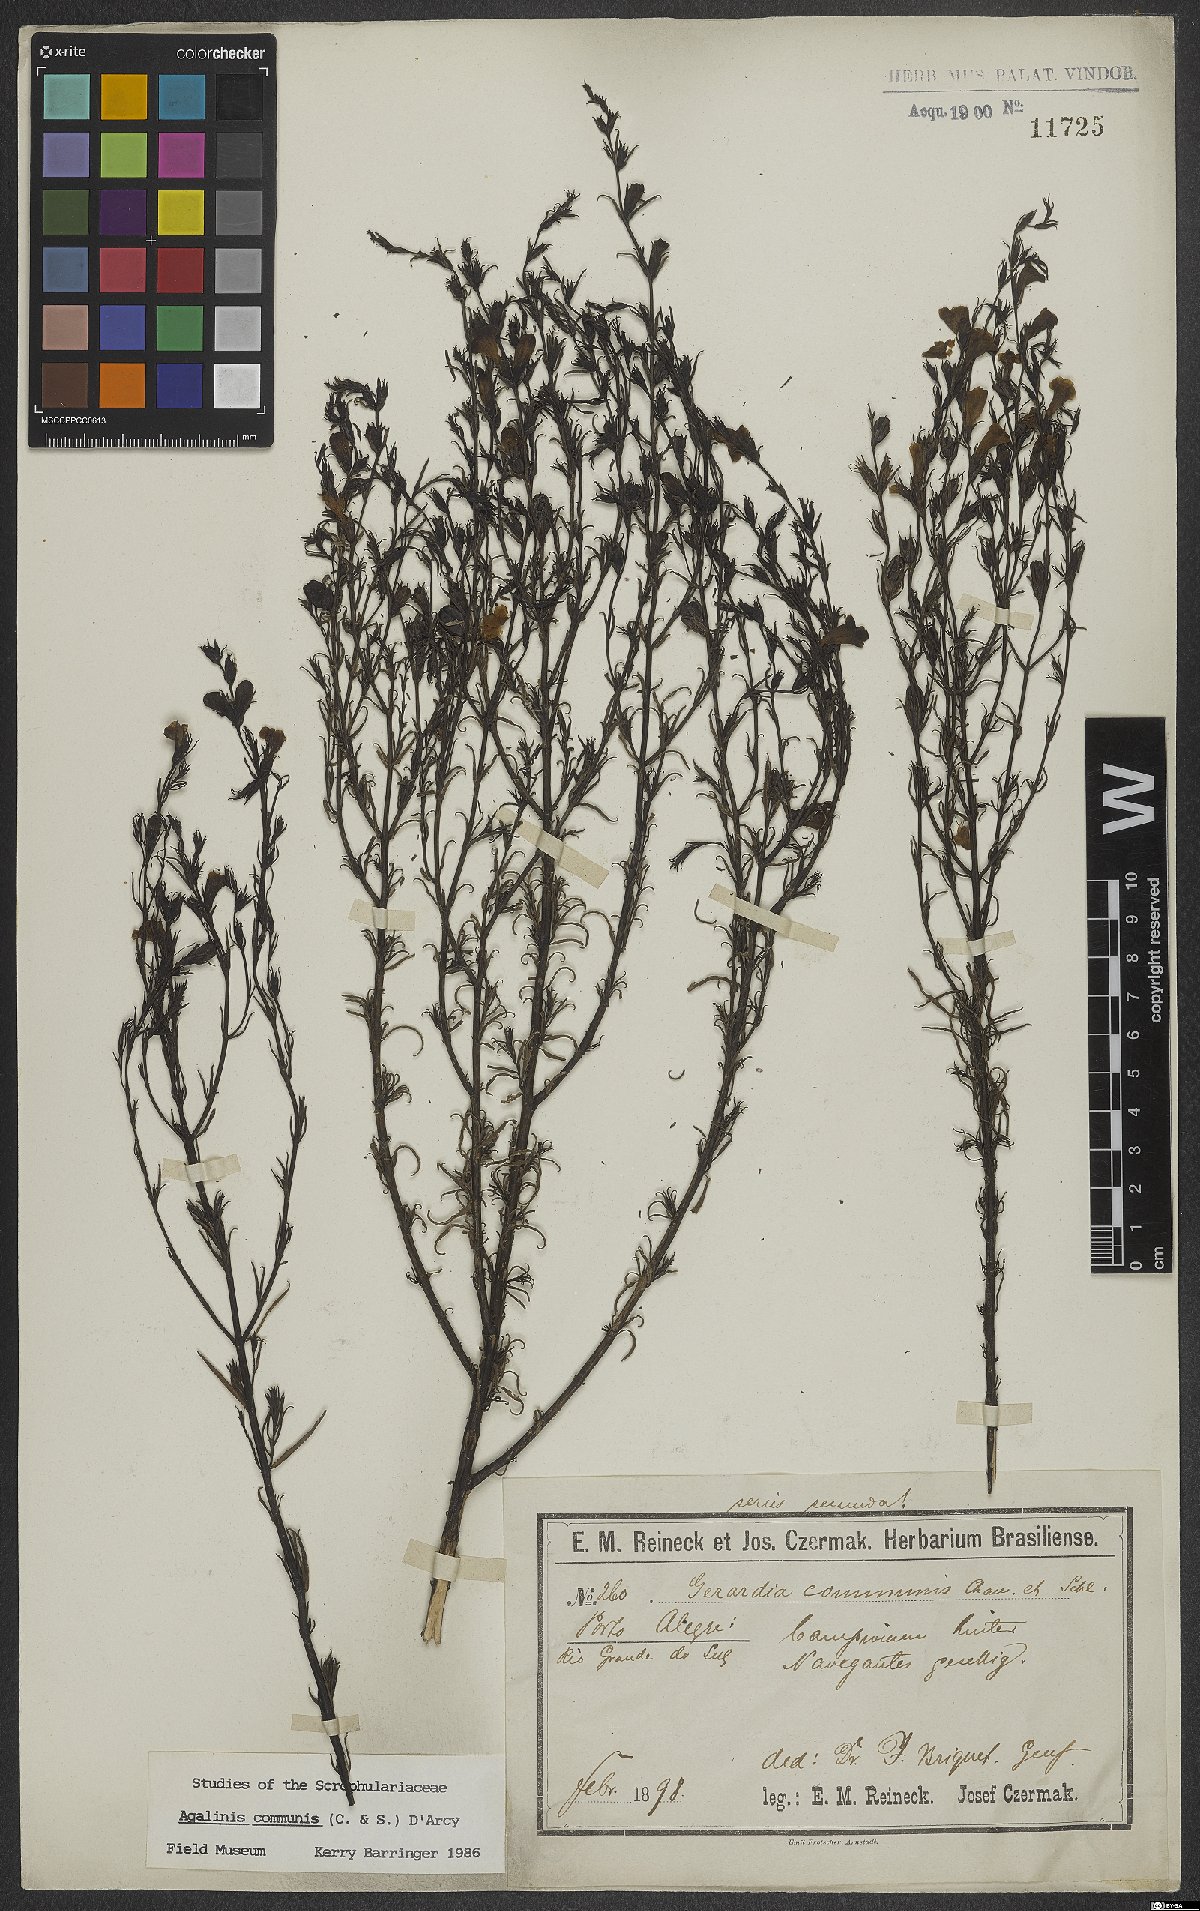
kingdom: Plantae
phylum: Tracheophyta
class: Magnoliopsida
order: Lamiales
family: Scrophulariaceae
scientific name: Scrophulariaceae
